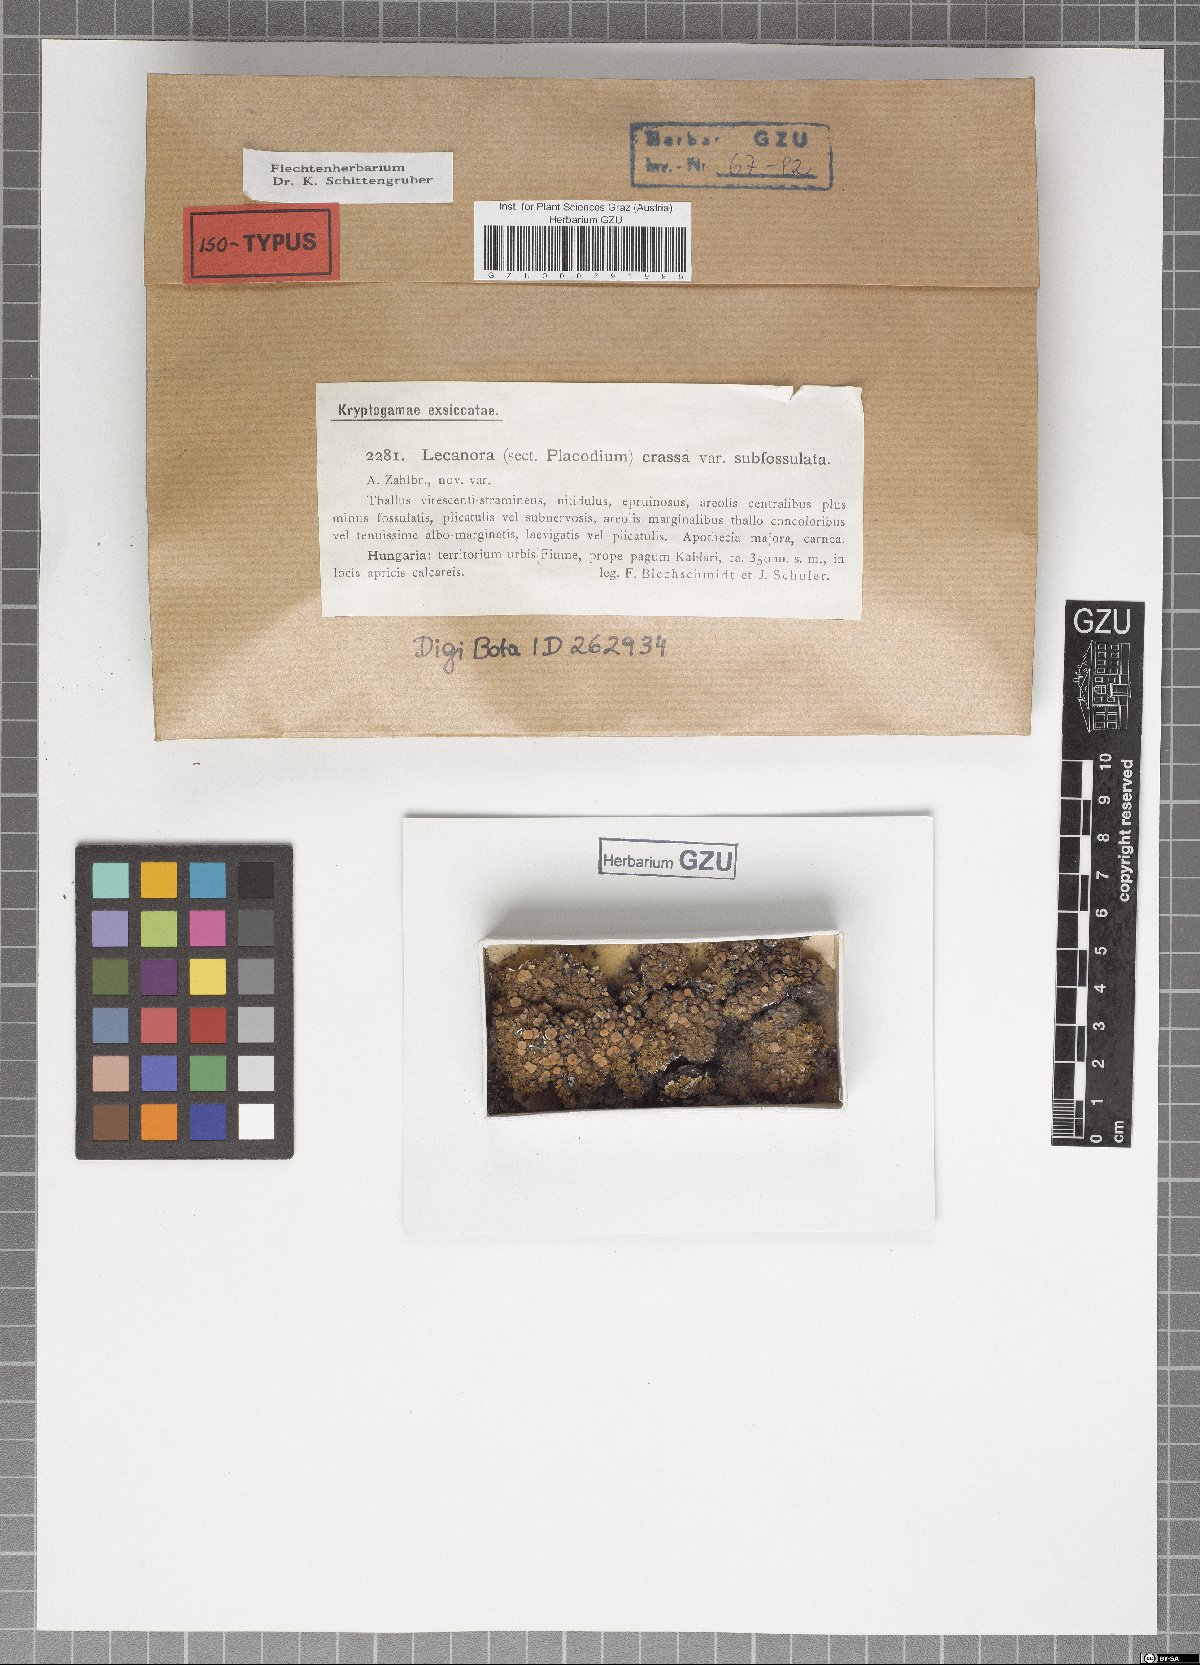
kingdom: Fungi
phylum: Ascomycota
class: Lecanoromycetes
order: Lecanorales
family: Lecanoraceae
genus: Lecanora
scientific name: Lecanora chlarotera
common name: Brown rim-lichen
